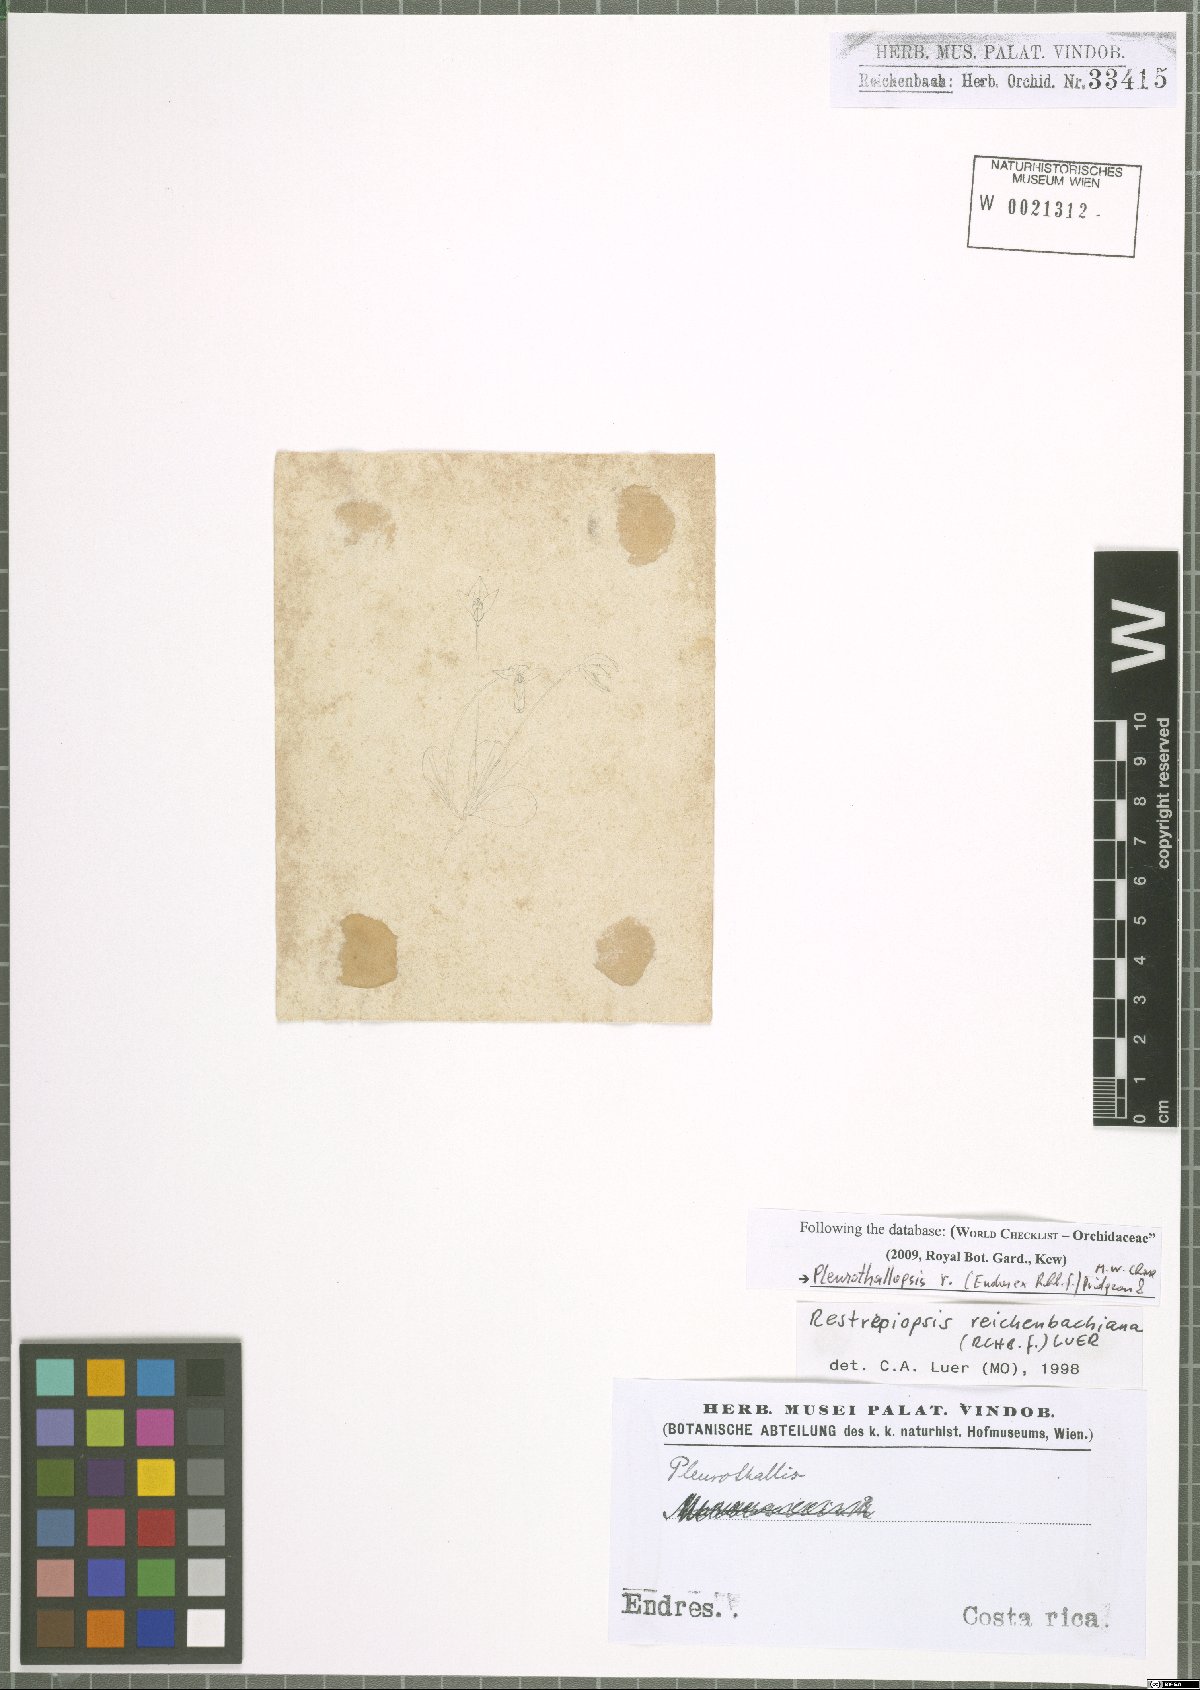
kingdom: Plantae
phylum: Tracheophyta
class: Liliopsida
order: Asparagales
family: Orchidaceae
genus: Pleurothallopsis
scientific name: Pleurothallopsis reichenbachiana
